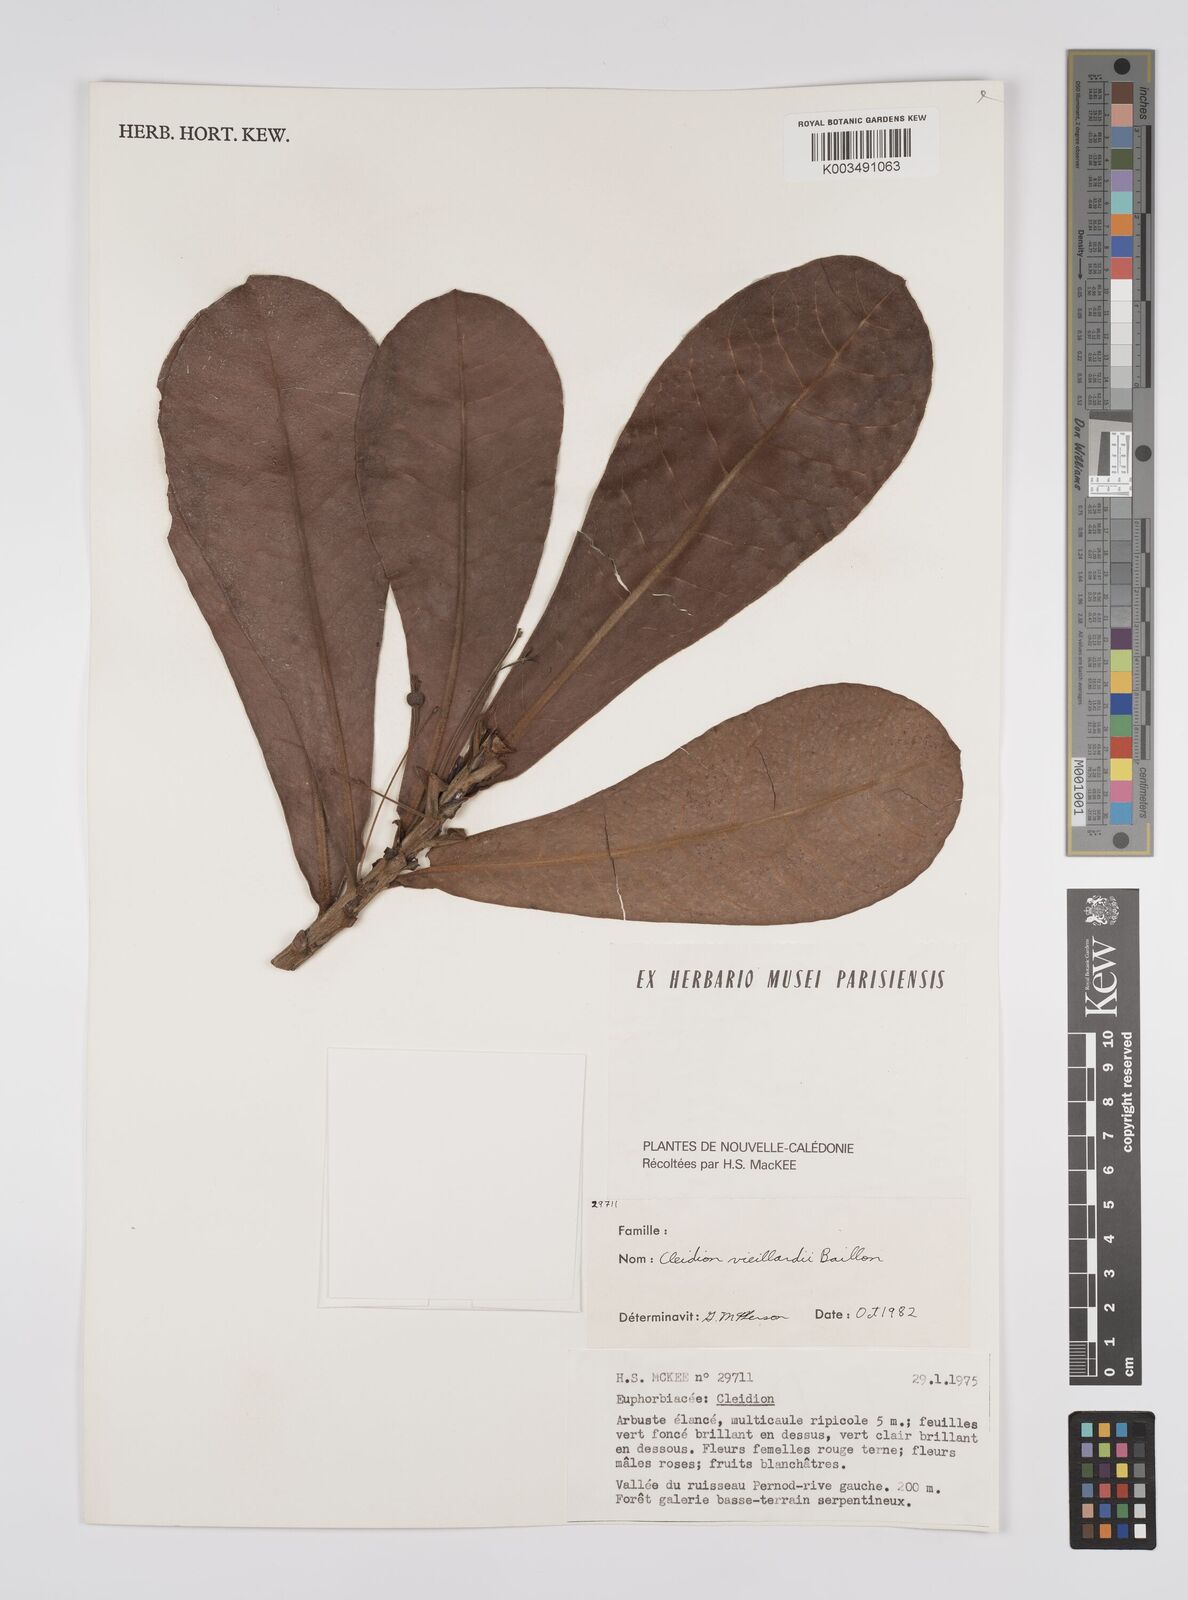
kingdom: Plantae
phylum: Tracheophyta
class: Magnoliopsida
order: Malpighiales
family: Euphorbiaceae
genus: Cleidion
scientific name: Cleidion vieillardii
